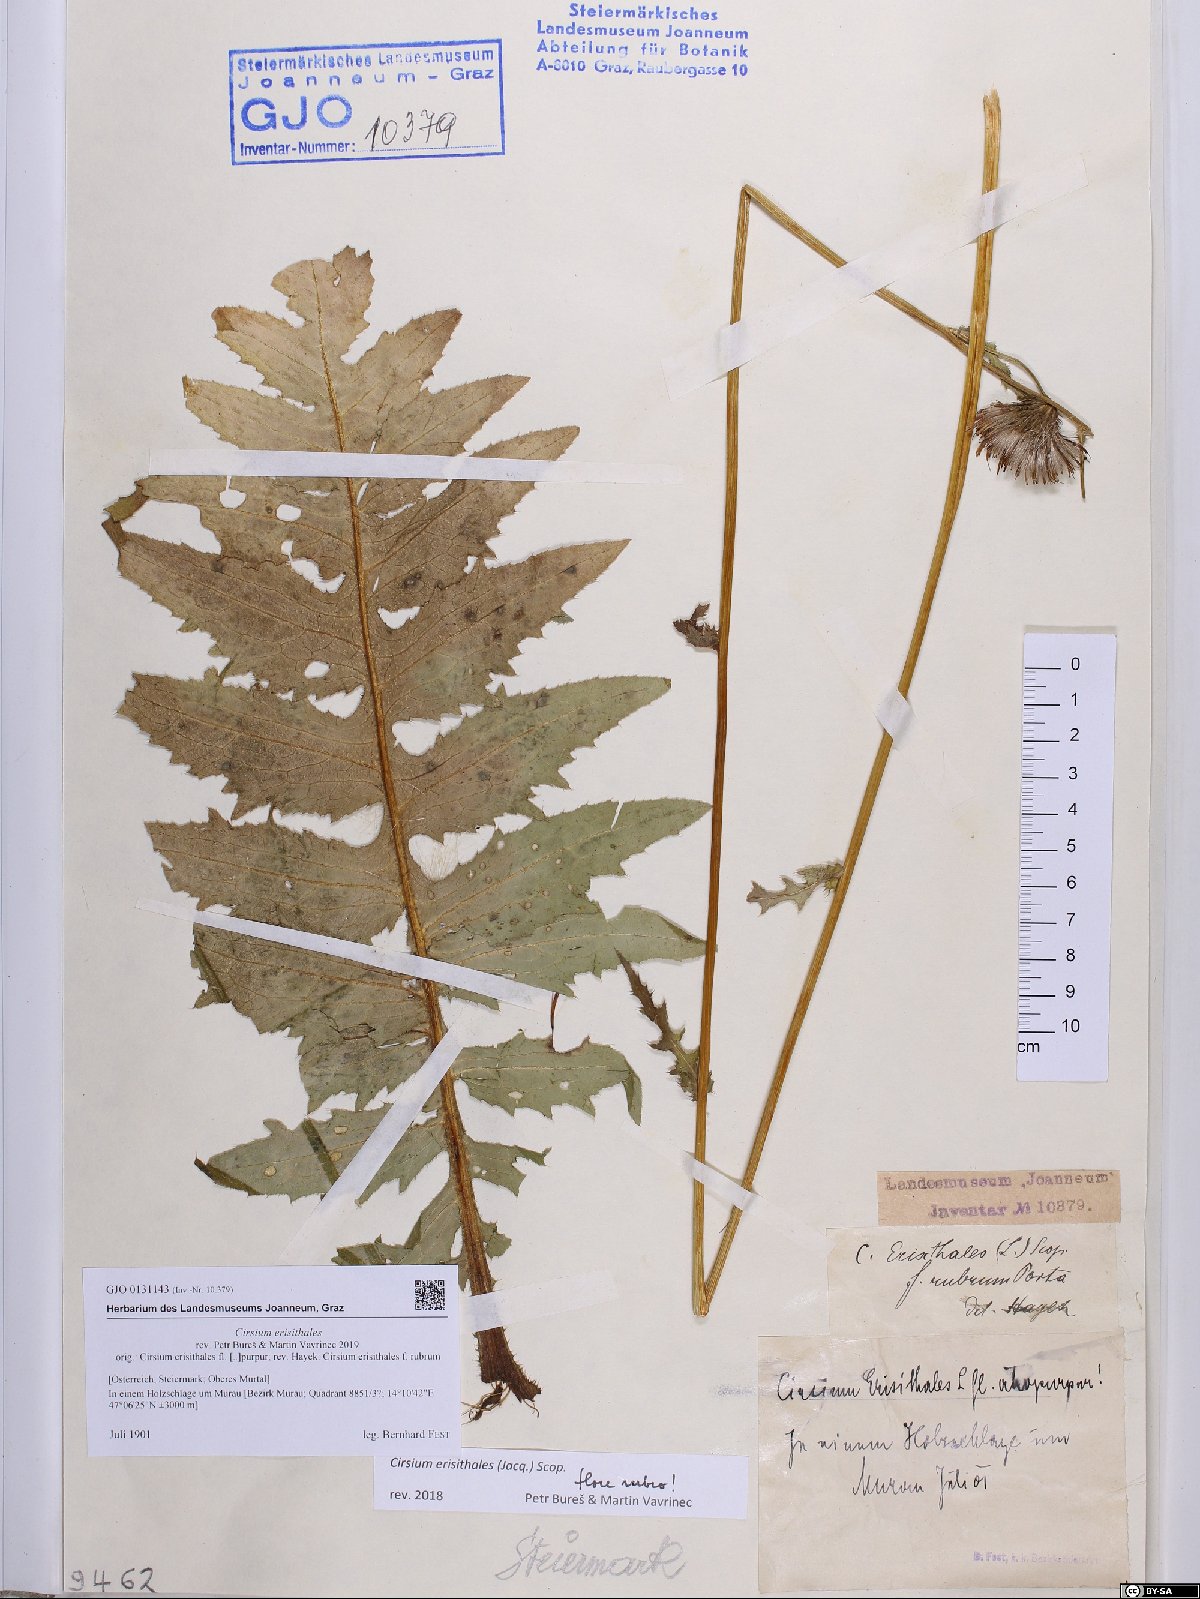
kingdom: Plantae
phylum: Tracheophyta
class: Magnoliopsida
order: Asterales
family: Asteraceae
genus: Cirsium
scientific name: Cirsium erisithales
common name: Yellow thistle
